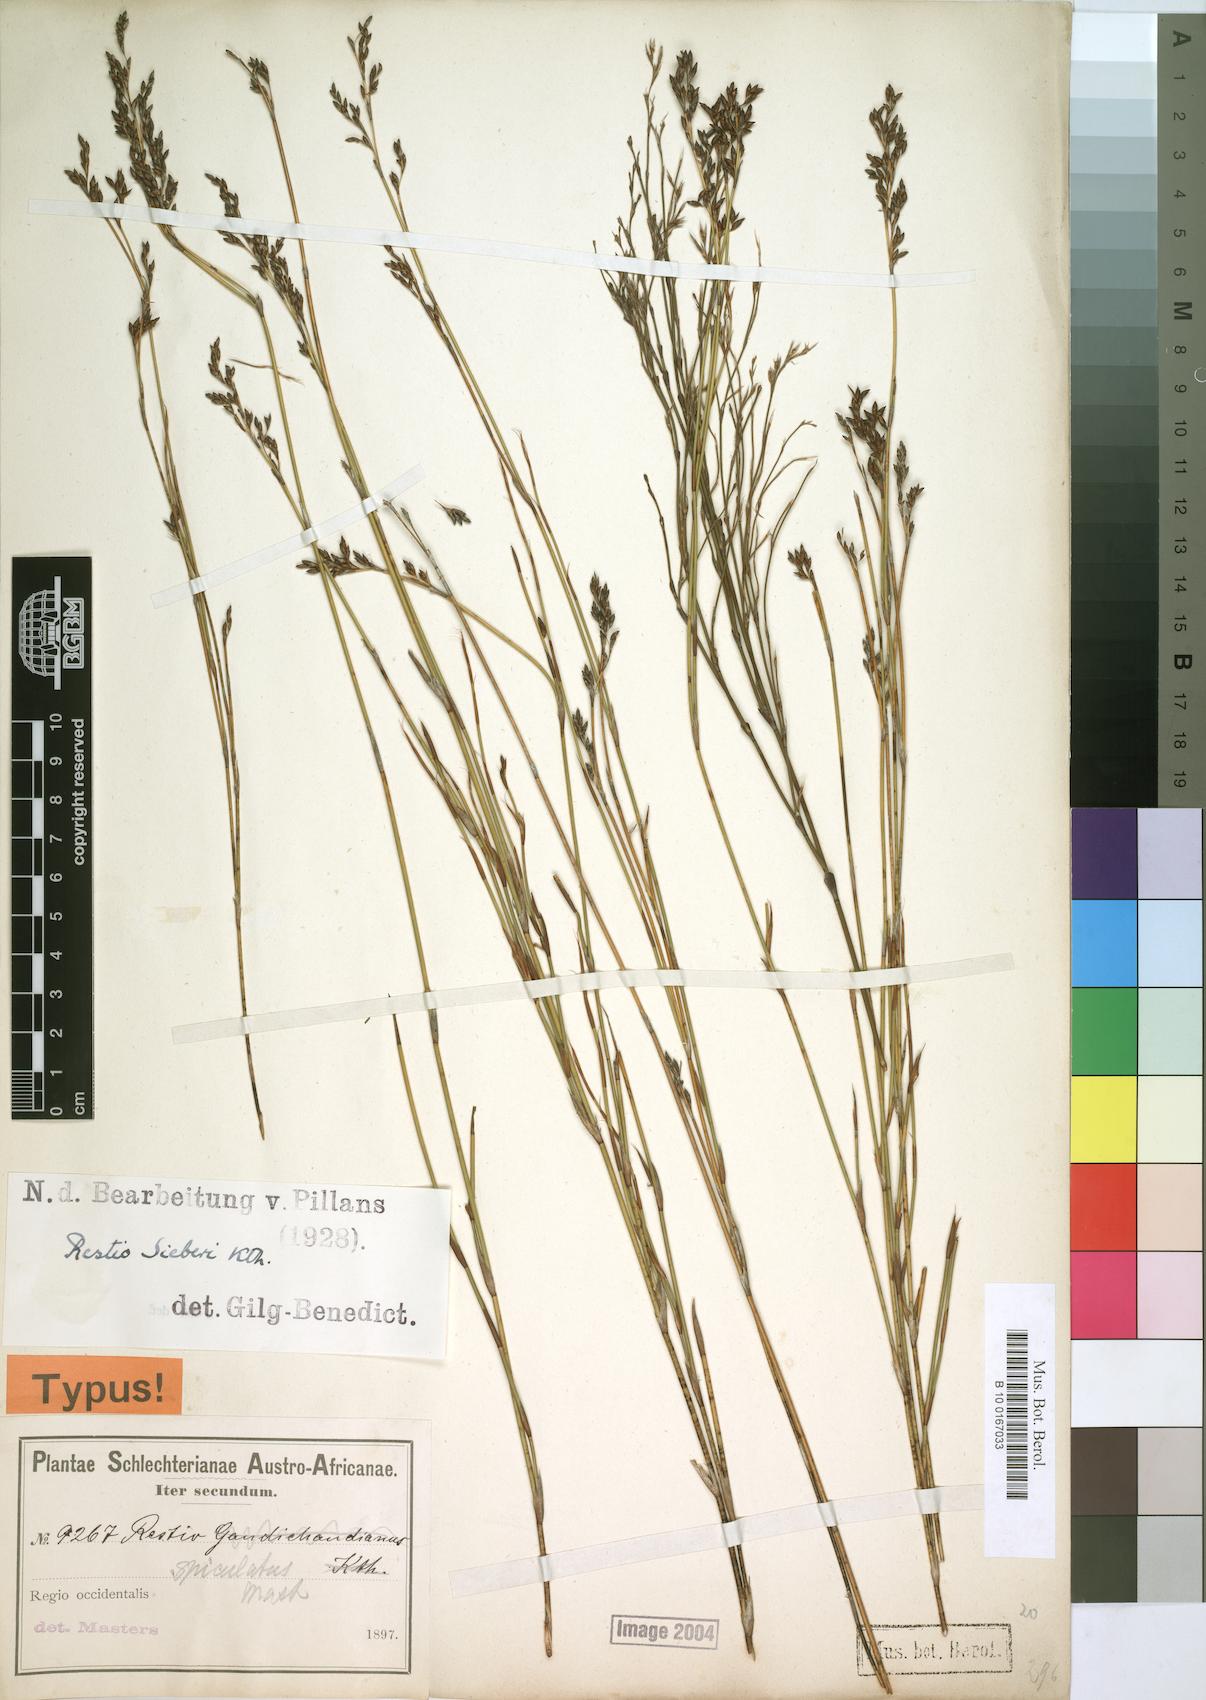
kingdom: Plantae
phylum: Tracheophyta
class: Liliopsida
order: Poales
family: Restionaceae
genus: Restio
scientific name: Restio sieberi
